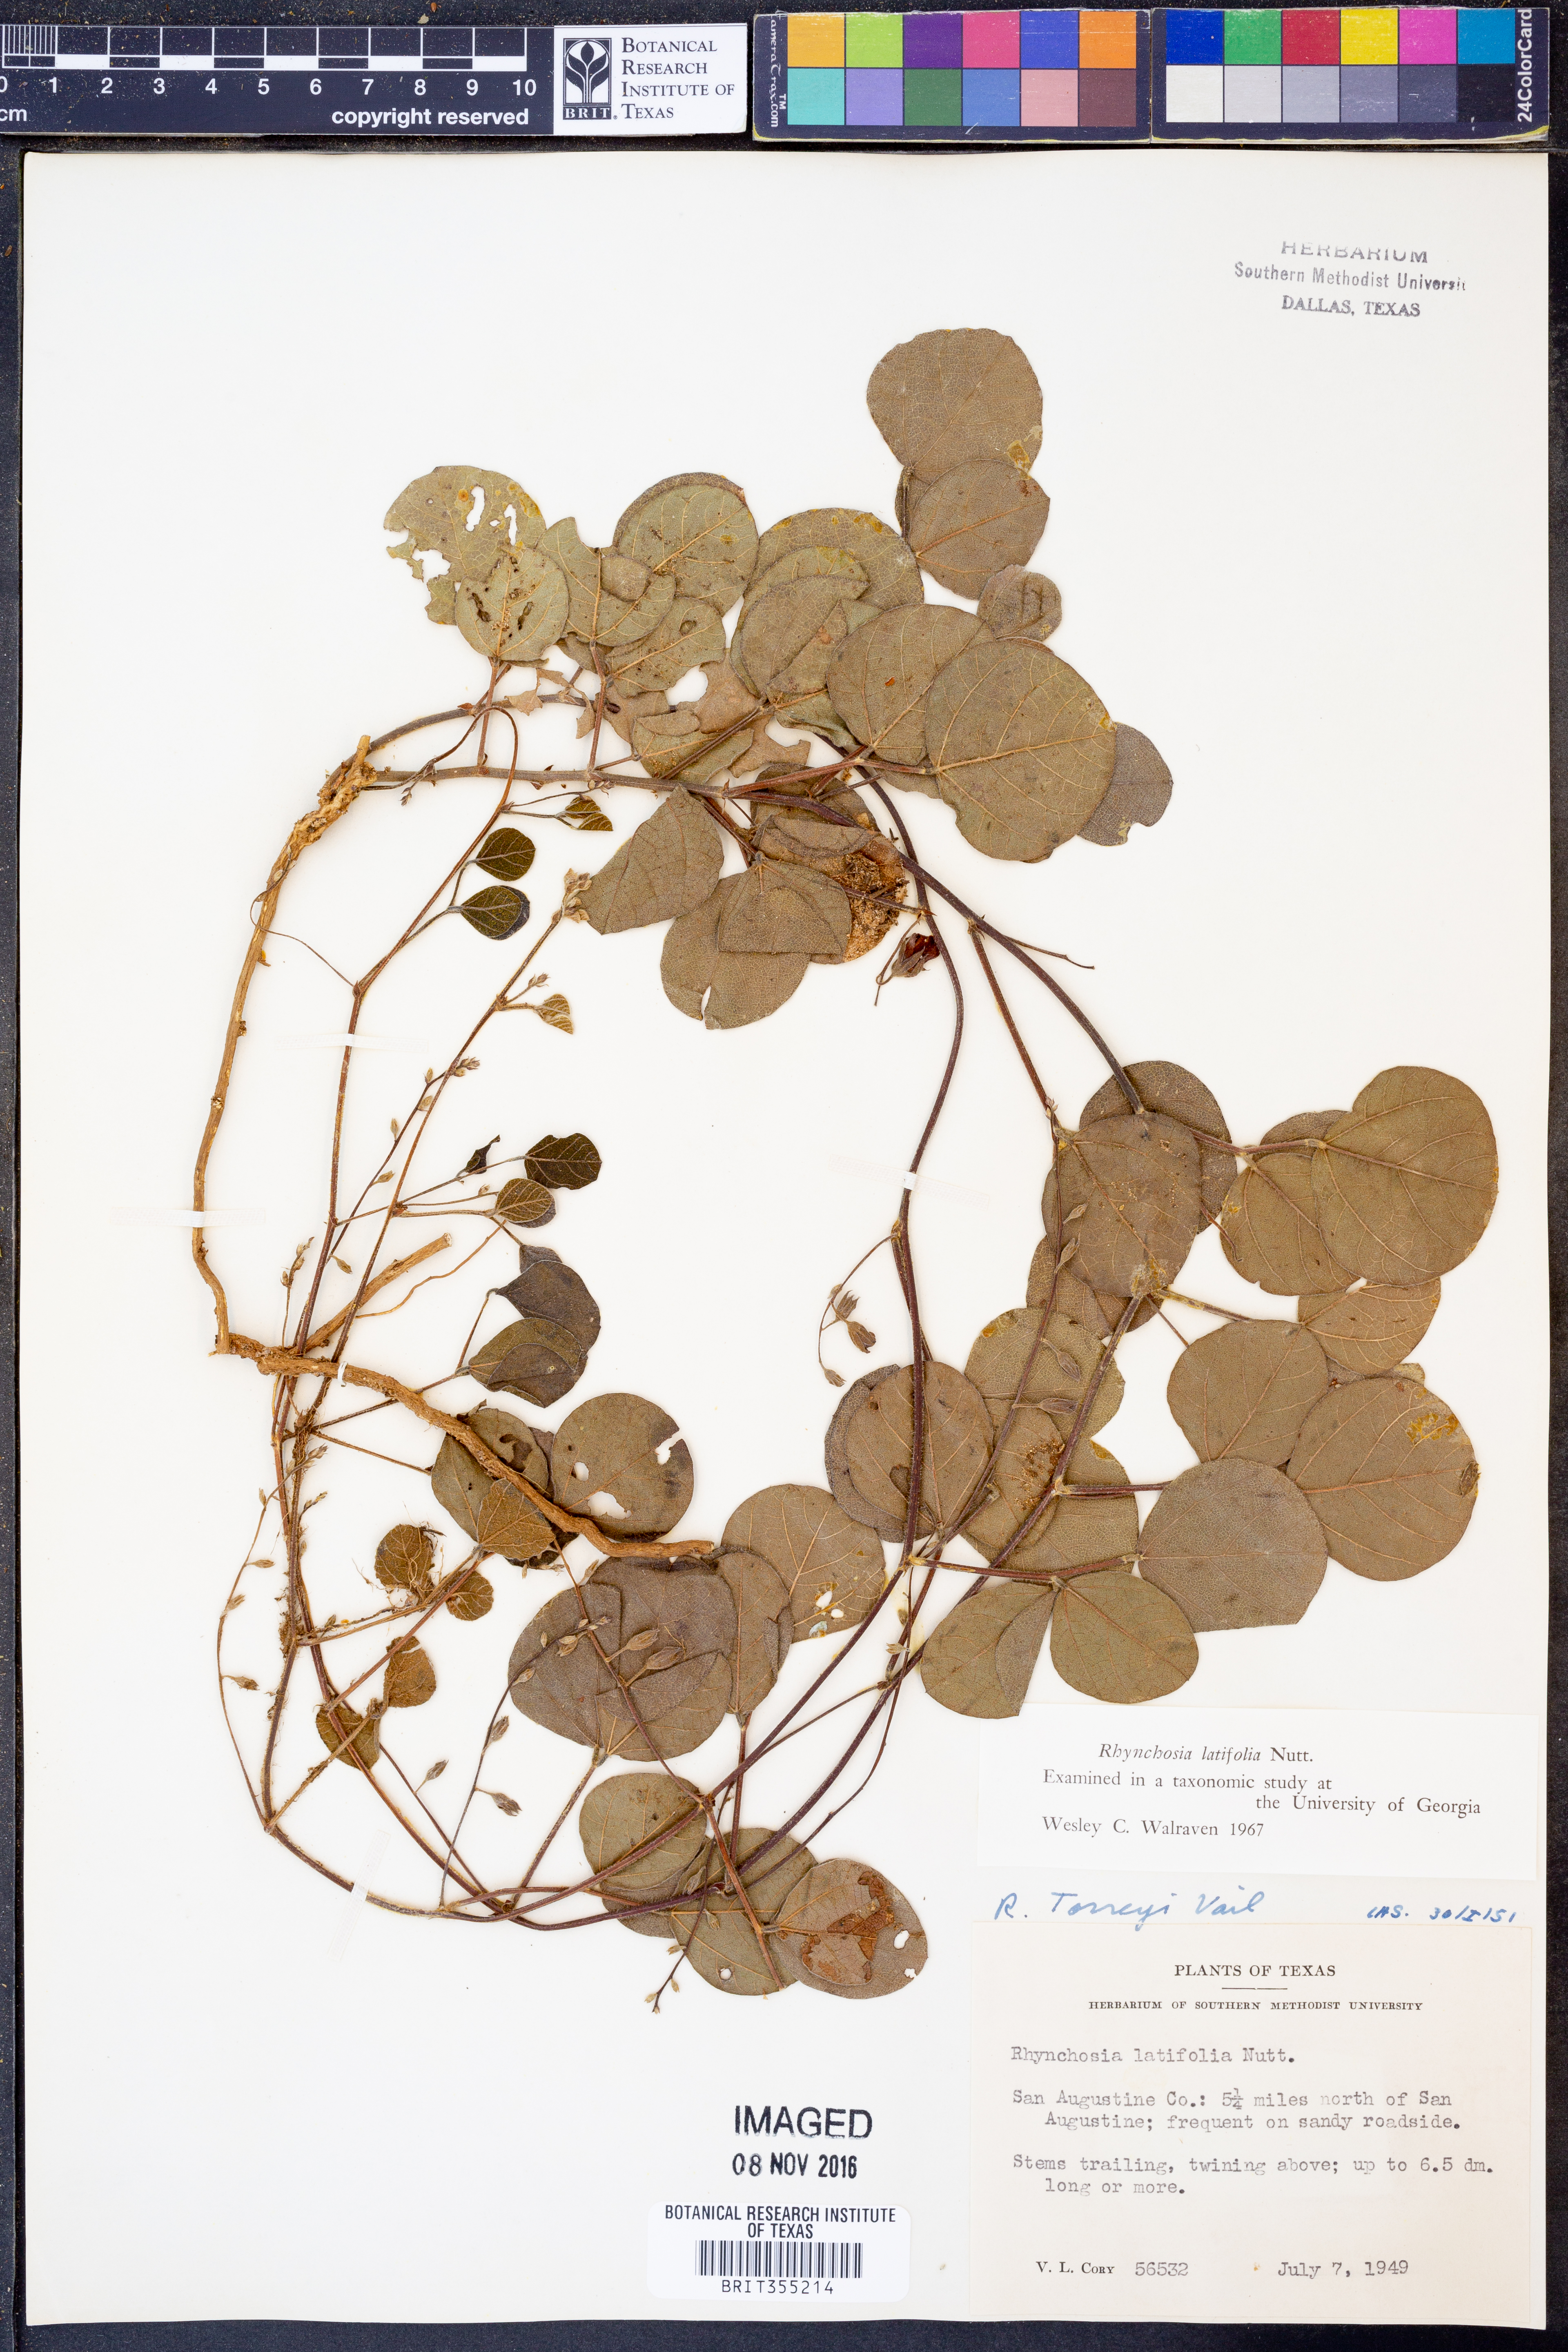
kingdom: Plantae
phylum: Tracheophyta
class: Magnoliopsida
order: Fabales
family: Fabaceae
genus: Rhynchosia
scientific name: Rhynchosia latifolia
